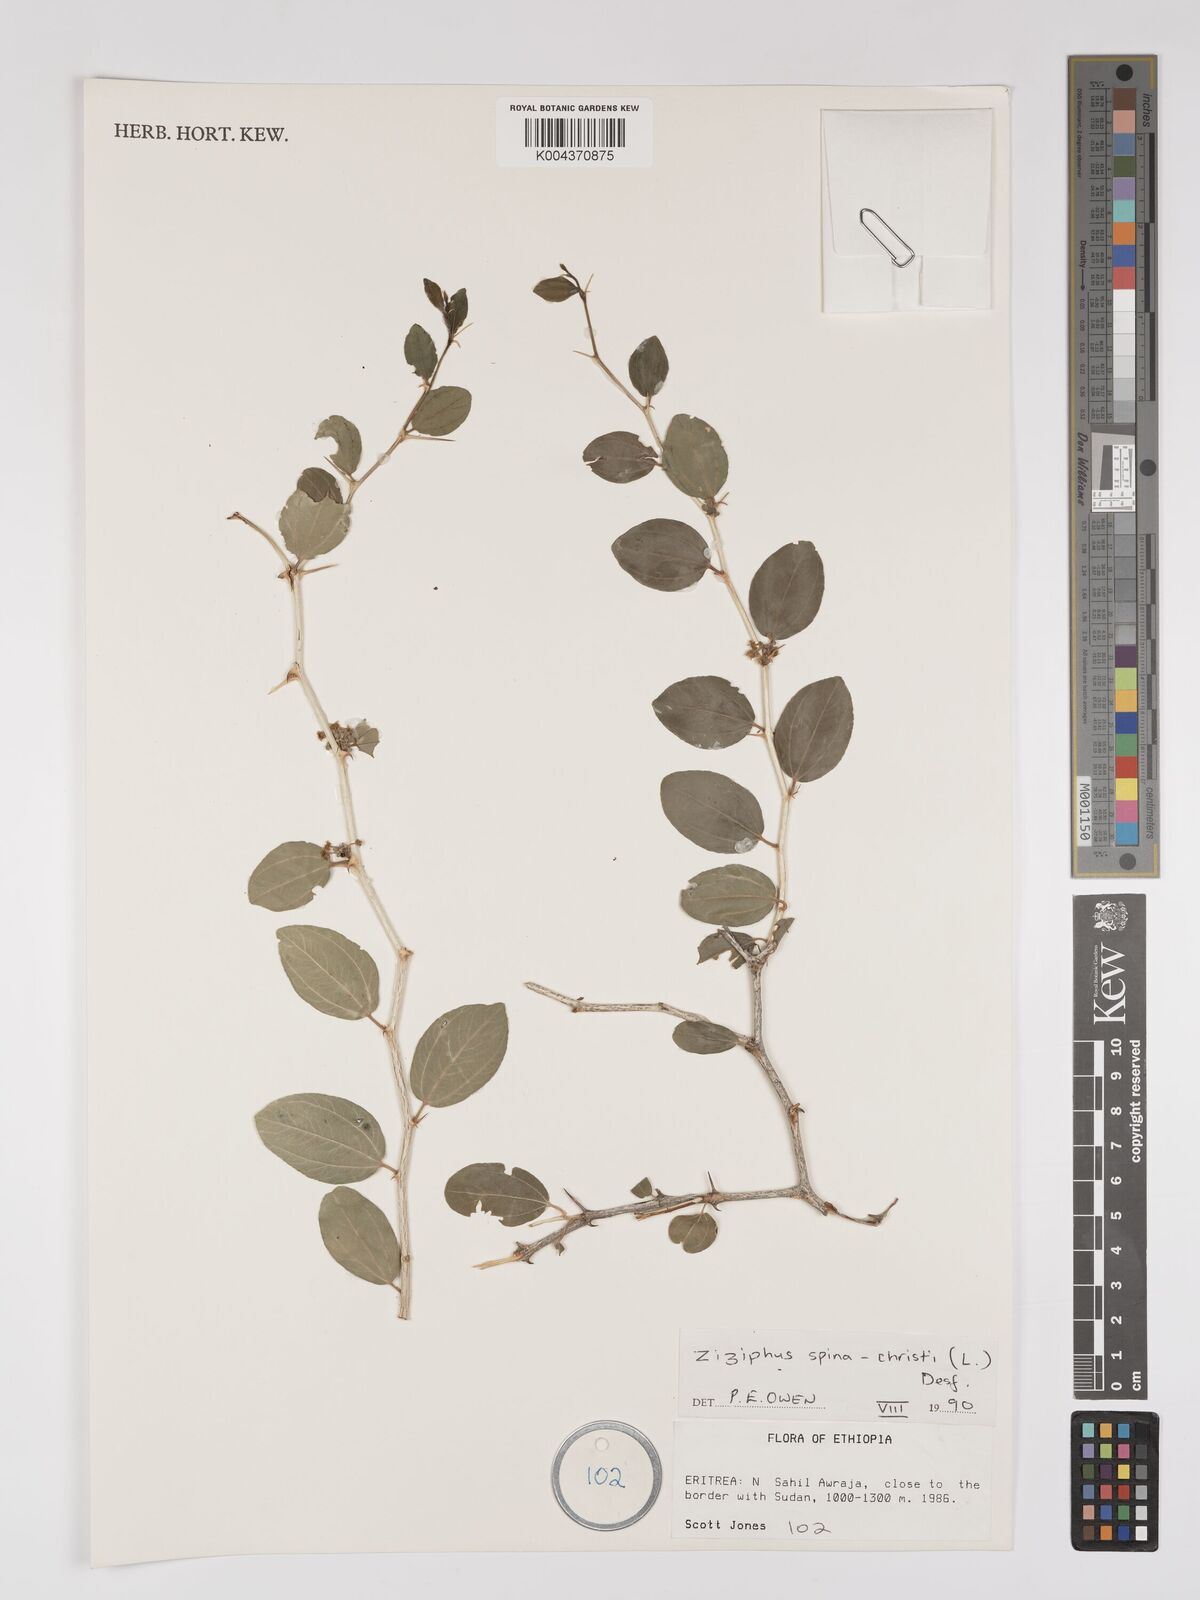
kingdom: Plantae
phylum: Tracheophyta
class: Magnoliopsida
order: Rosales
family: Rhamnaceae
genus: Ziziphus
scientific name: Ziziphus spina-christi
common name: Syrian christ-thorn
